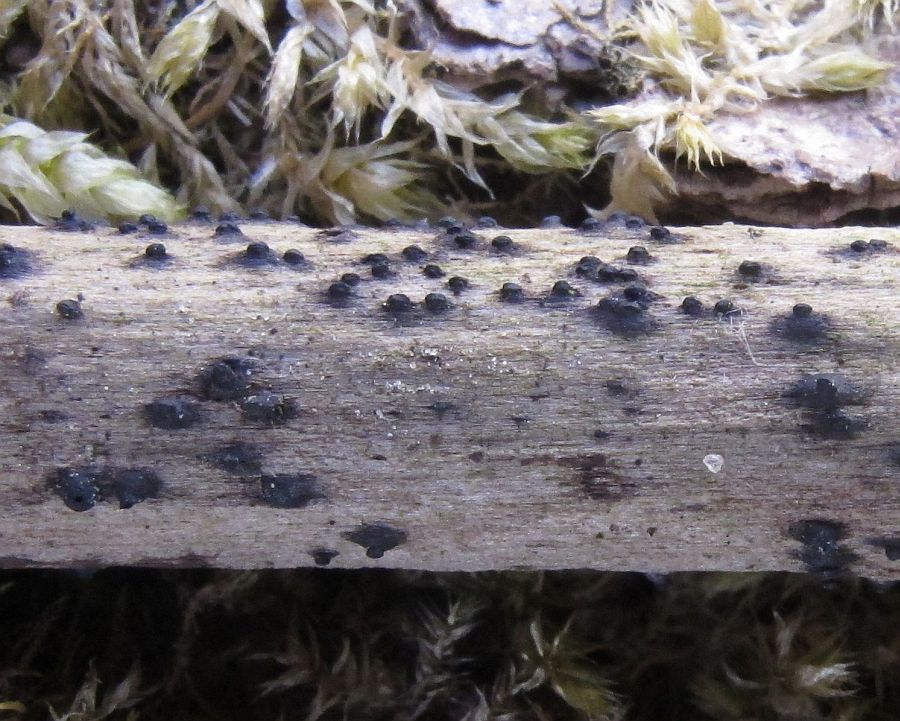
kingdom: Fungi
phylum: Ascomycota
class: Dothideomycetes
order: Pleosporales
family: Thyridariaceae
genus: Thyridaria
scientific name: Thyridaria macrostomoides
